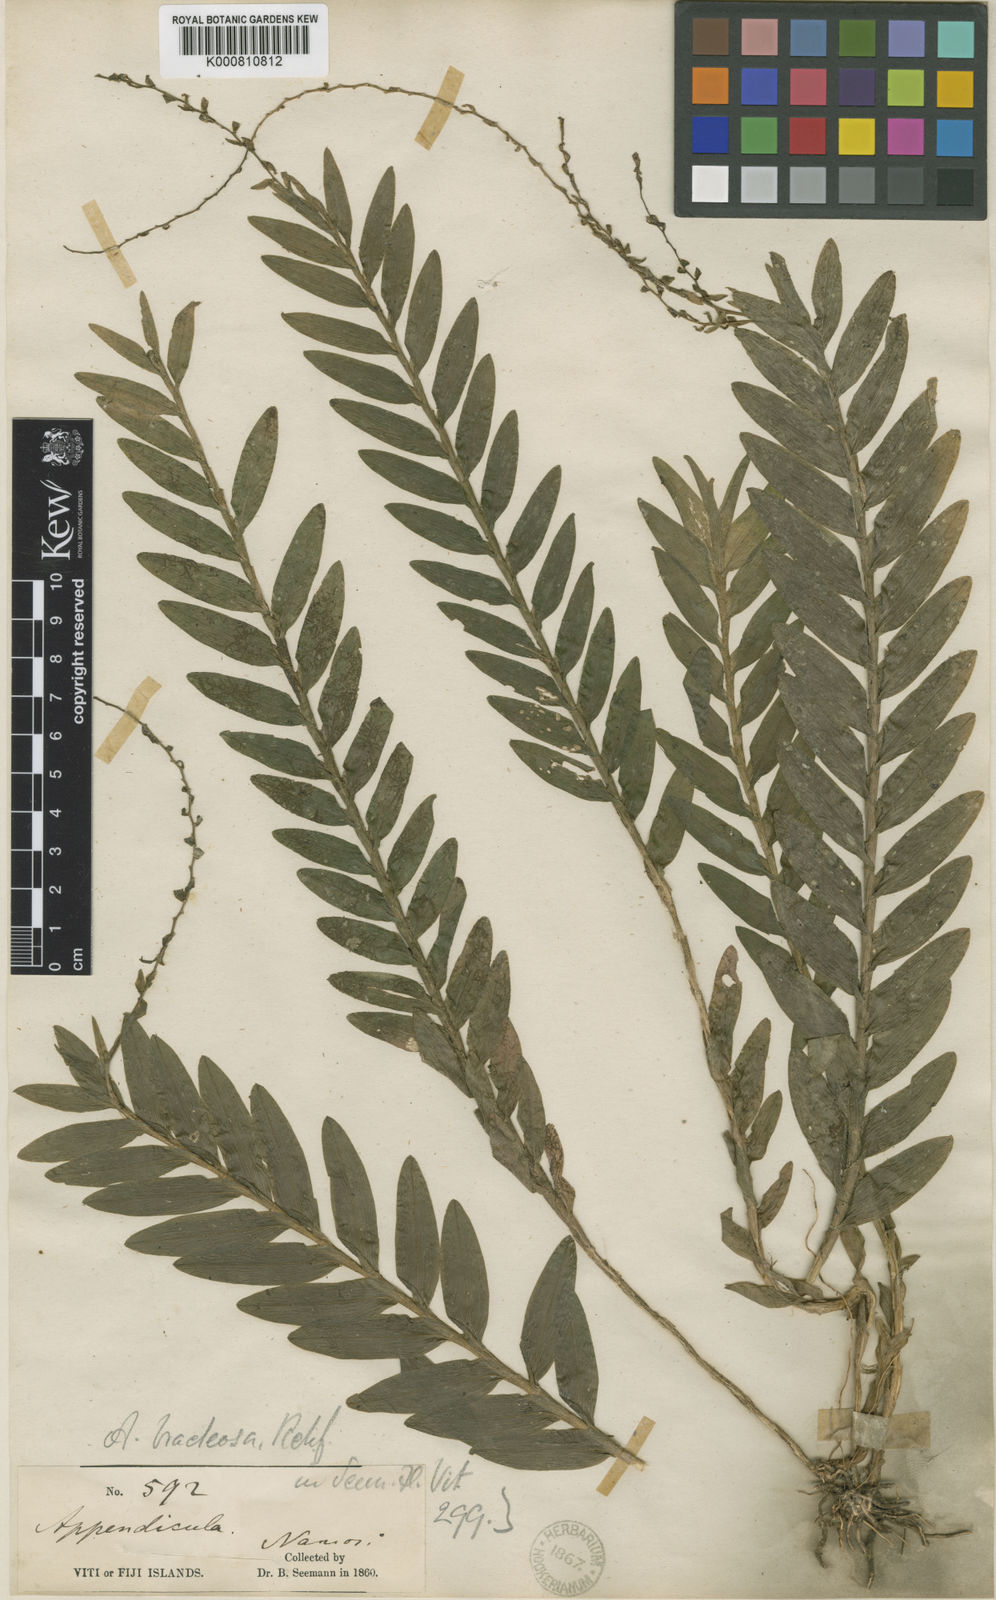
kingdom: Plantae
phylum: Tracheophyta
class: Liliopsida
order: Asparagales
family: Orchidaceae
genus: Appendicula
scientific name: Appendicula bracteosa
